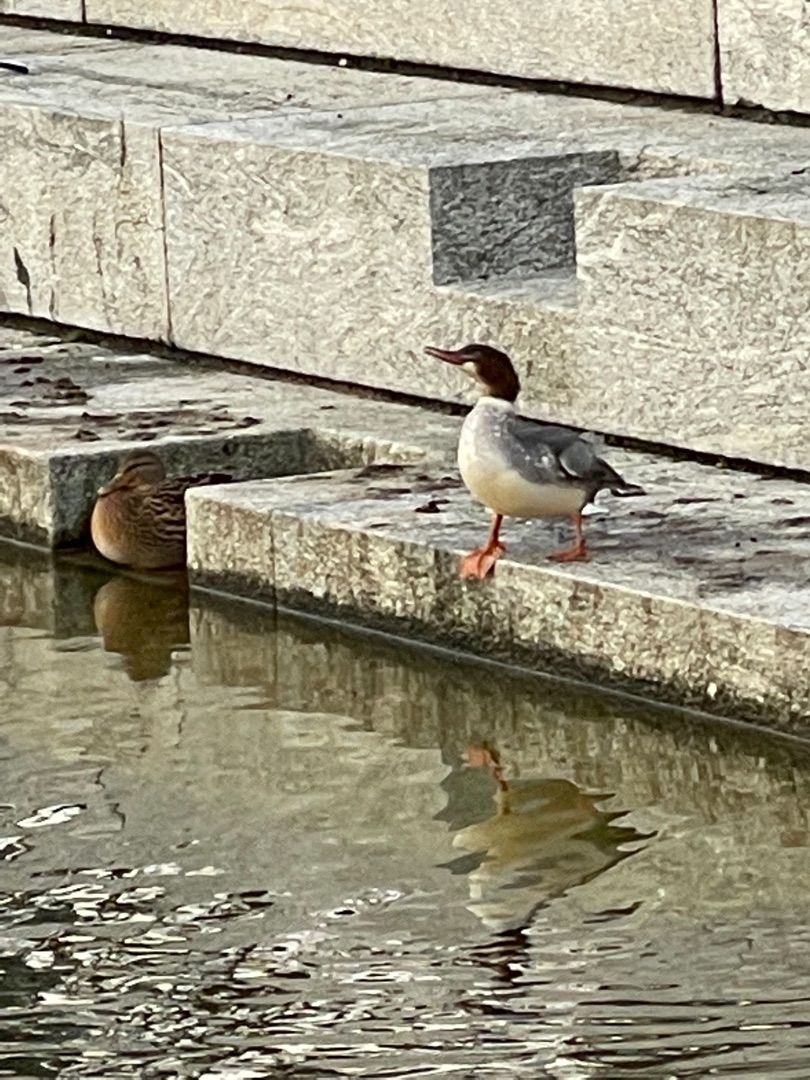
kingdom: Animalia
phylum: Chordata
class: Aves
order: Anseriformes
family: Anatidae
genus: Mergus
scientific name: Mergus merganser
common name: Stor skallesluger
